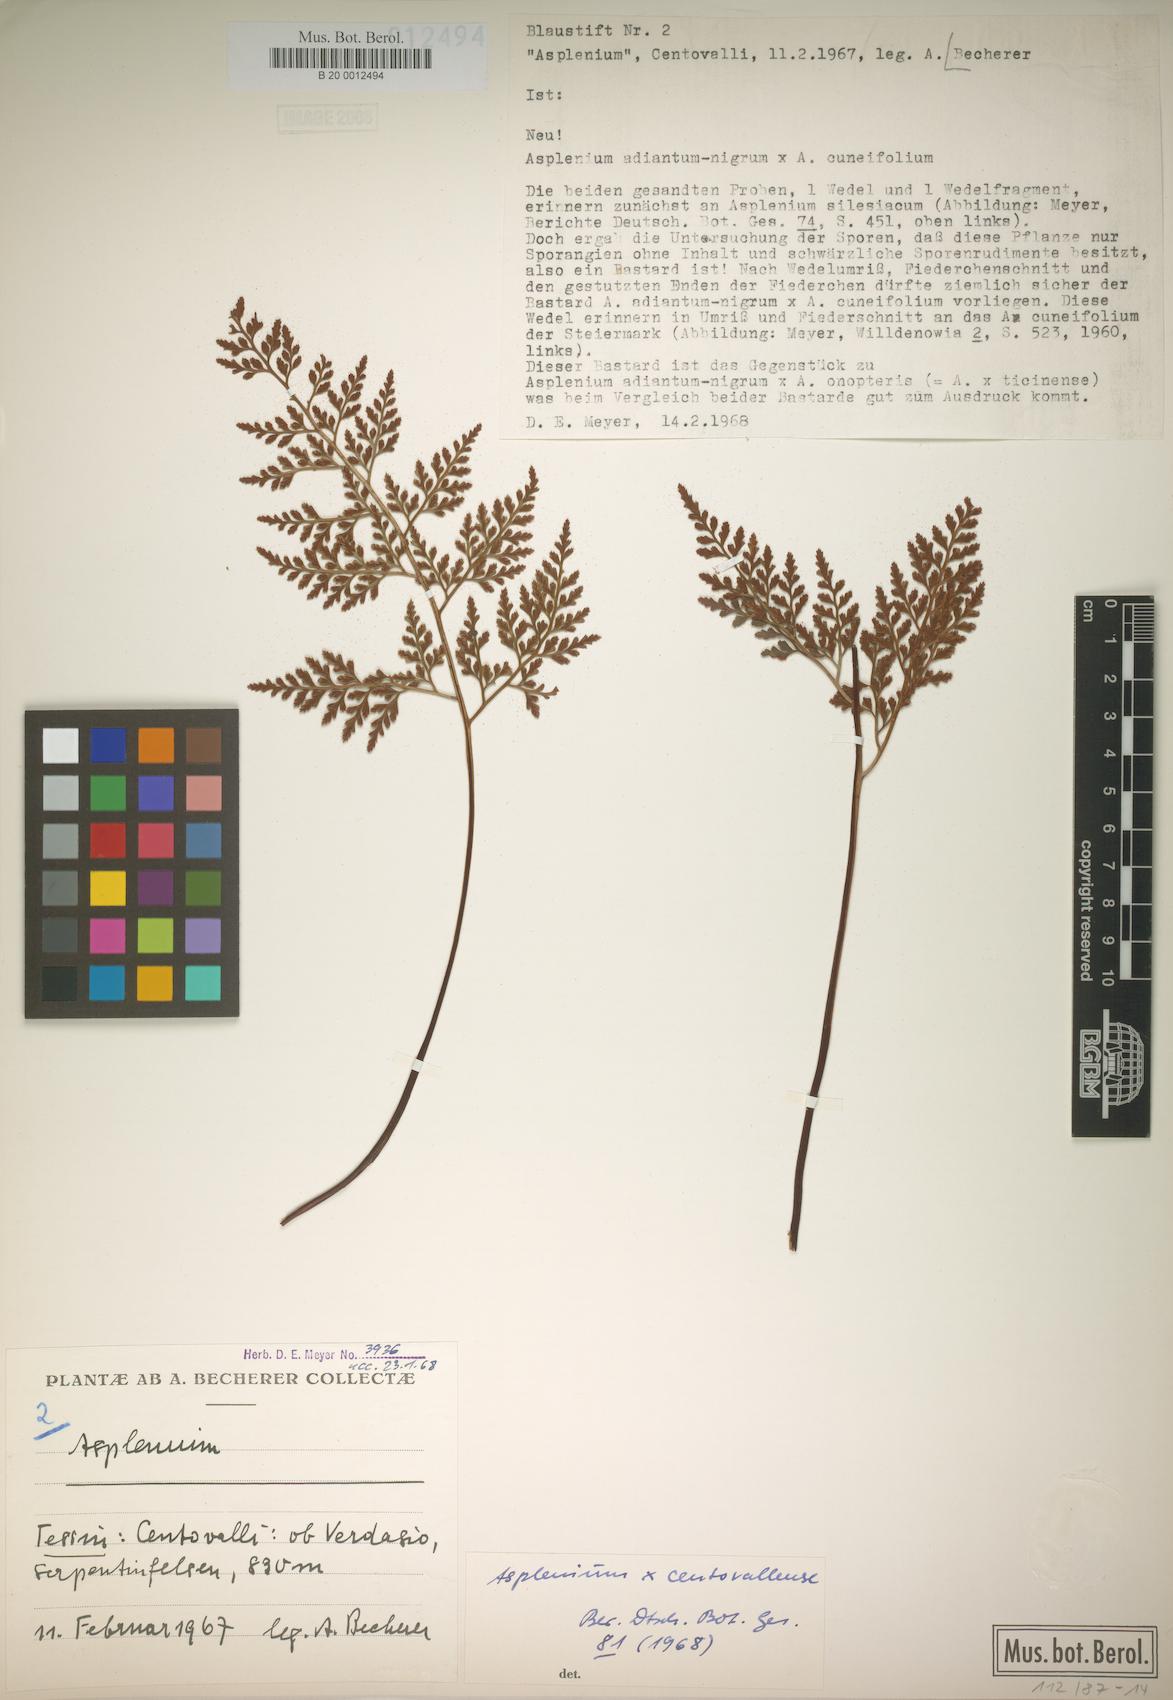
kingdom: Plantae
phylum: Tracheophyta
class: Polypodiopsida
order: Polypodiales
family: Aspleniaceae
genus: Asplenium
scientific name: Asplenium centovallense
